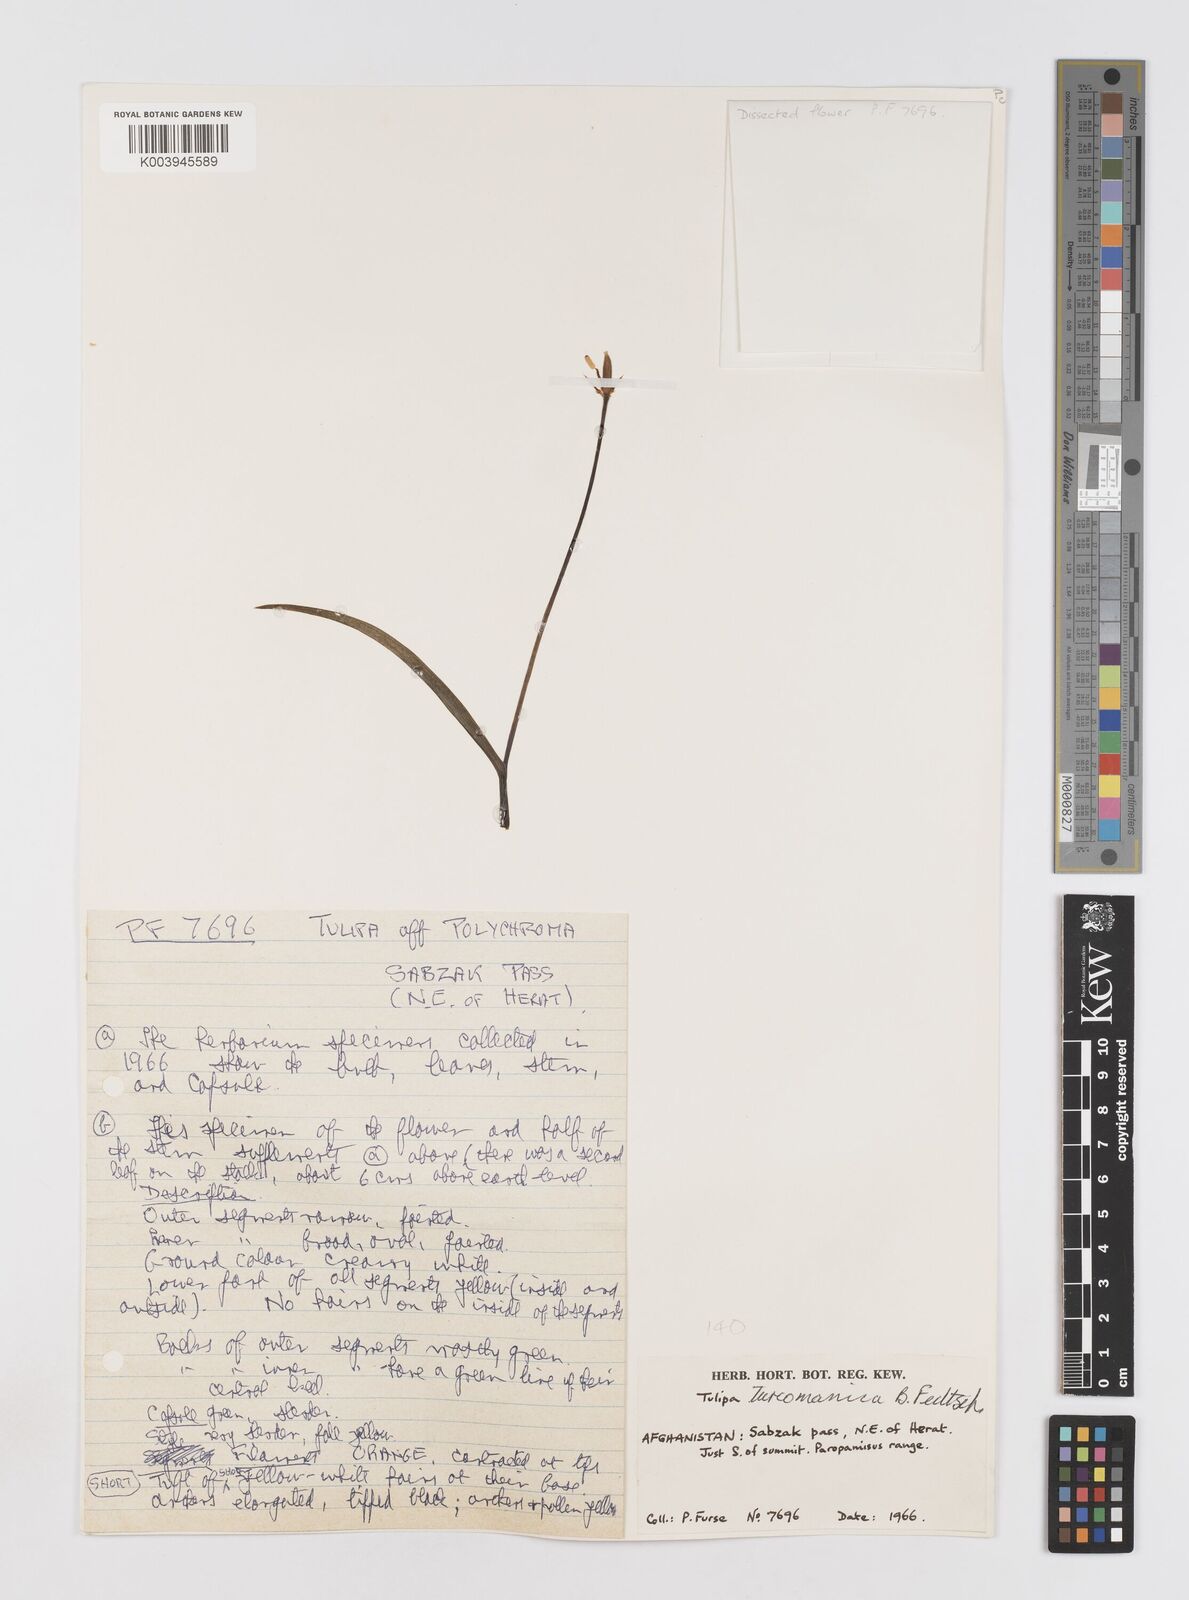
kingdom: Plantae
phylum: Tracheophyta
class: Liliopsida
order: Liliales
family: Liliaceae
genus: Tulipa
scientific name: Tulipa biflora
